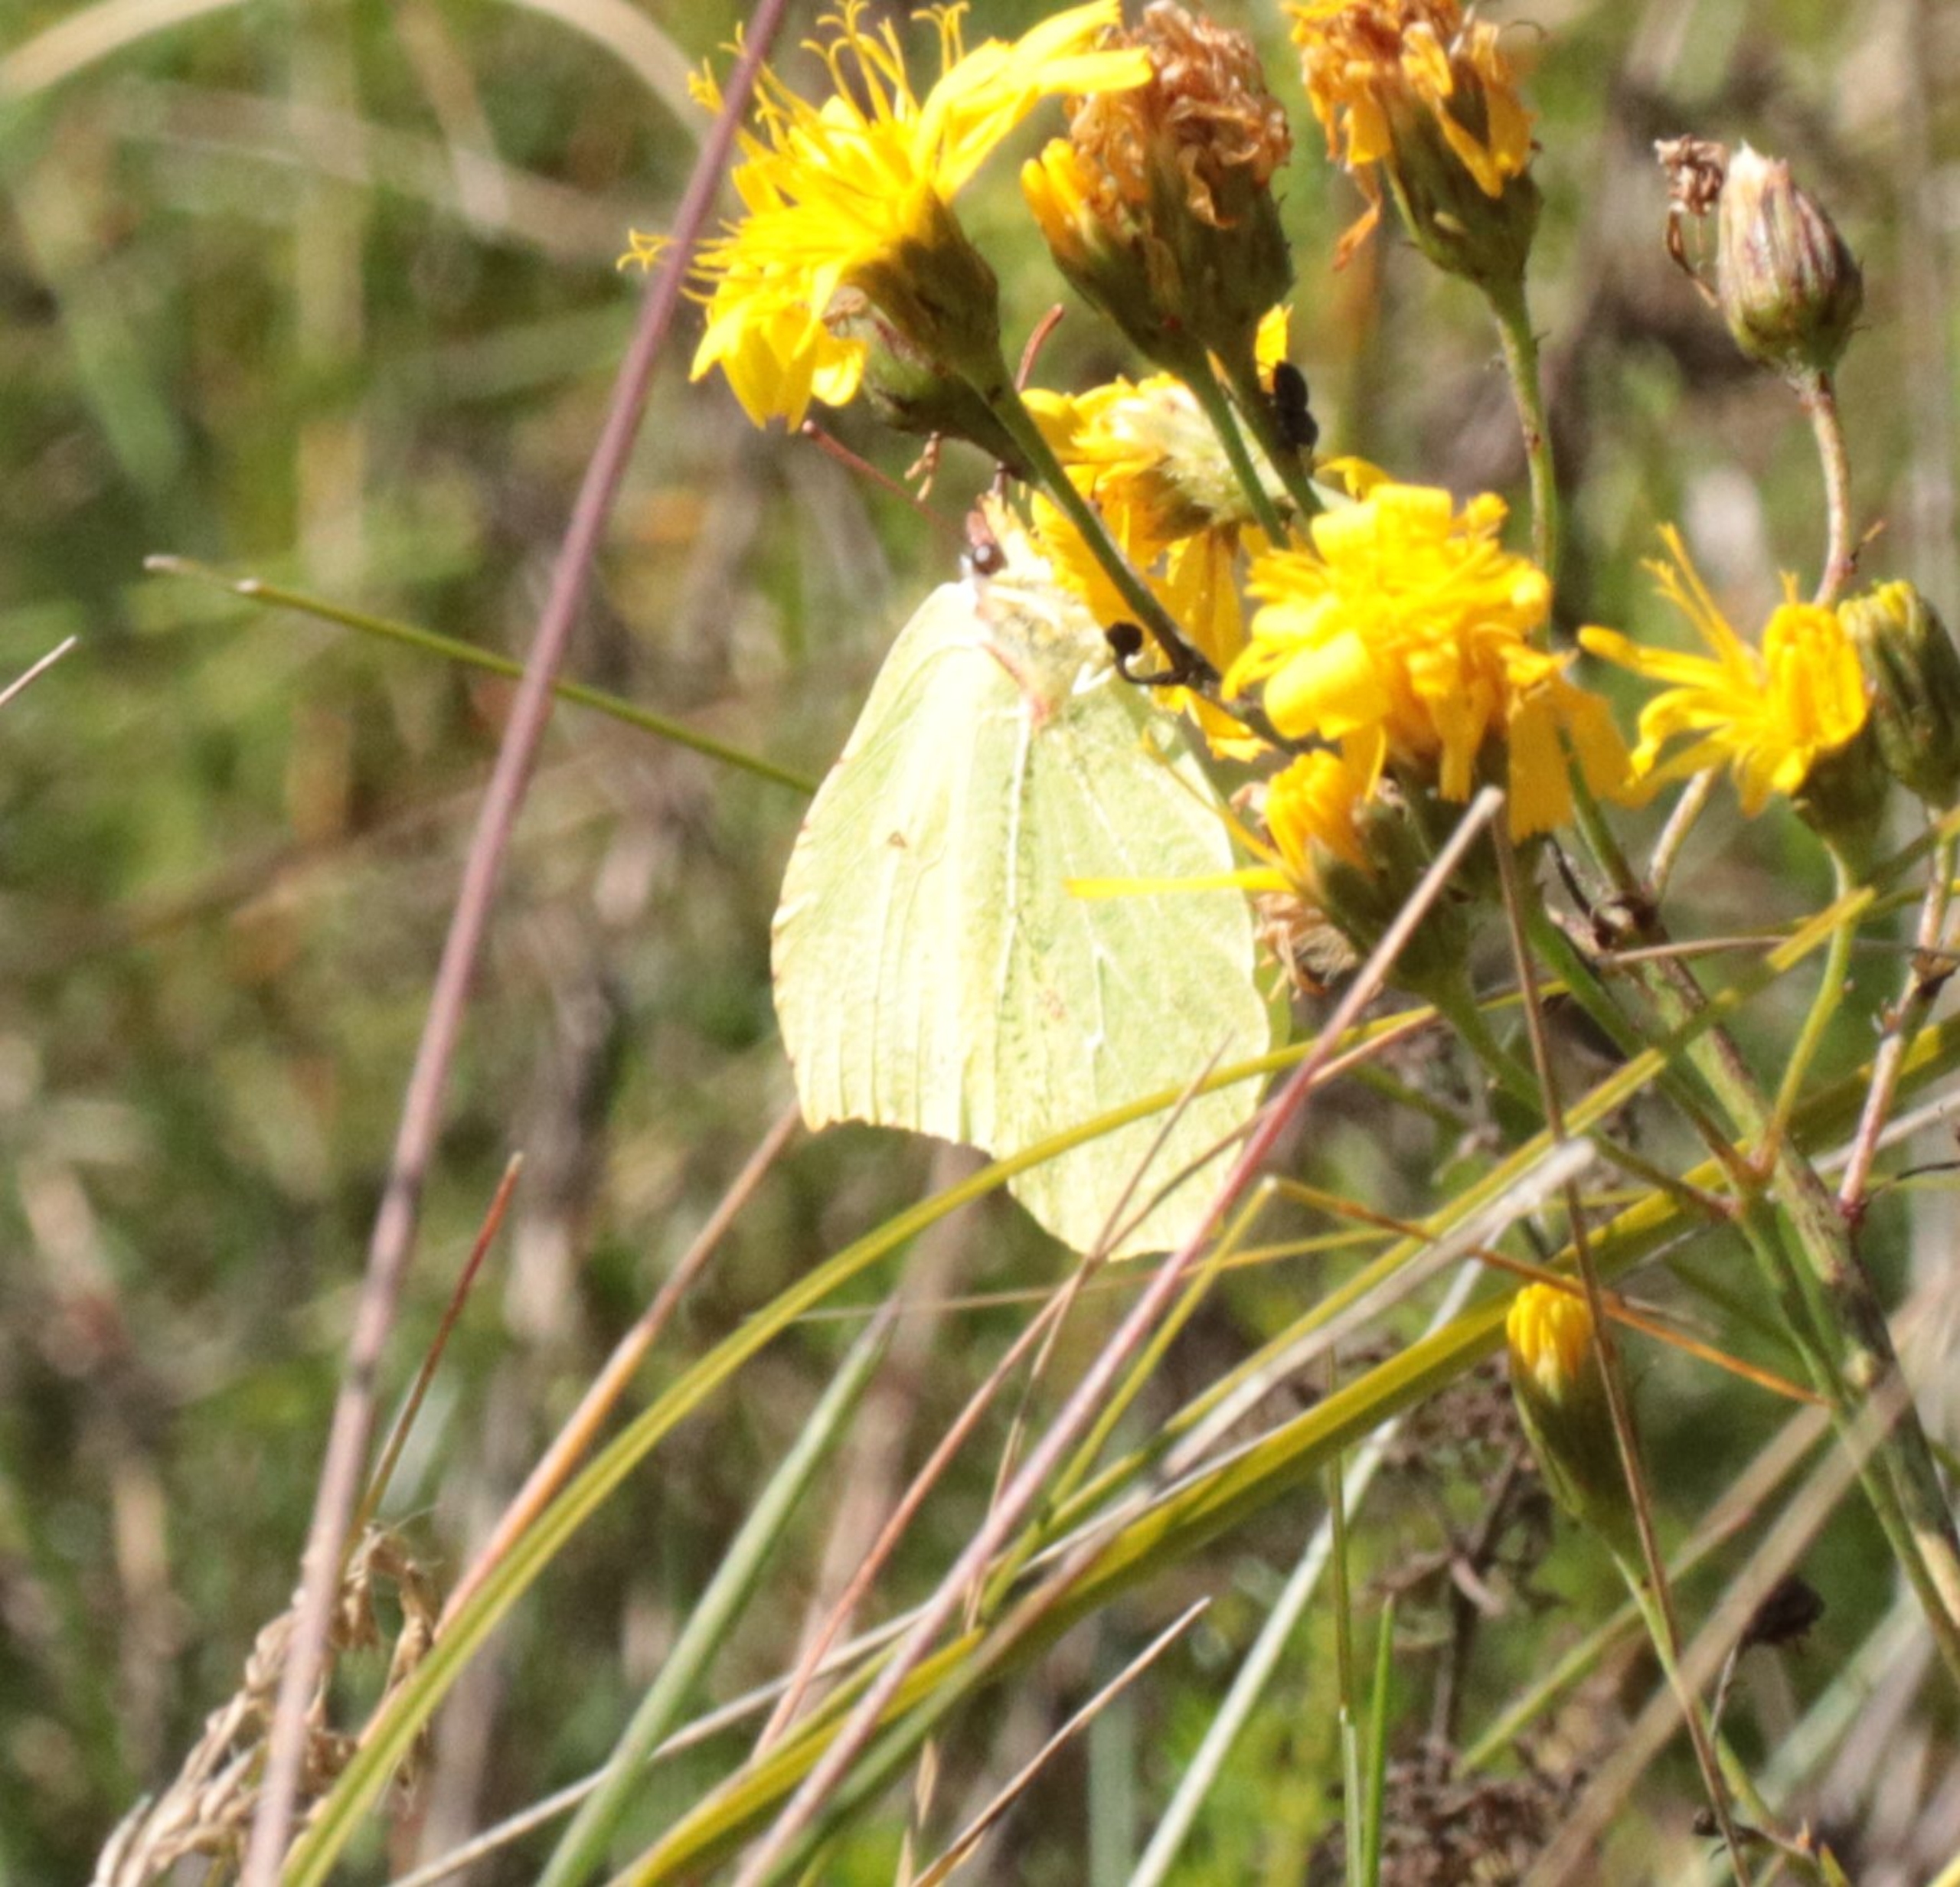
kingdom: Animalia
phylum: Arthropoda
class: Insecta
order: Lepidoptera
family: Pieridae
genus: Gonepteryx
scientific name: Gonepteryx rhamni
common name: Citronsommerfugl
